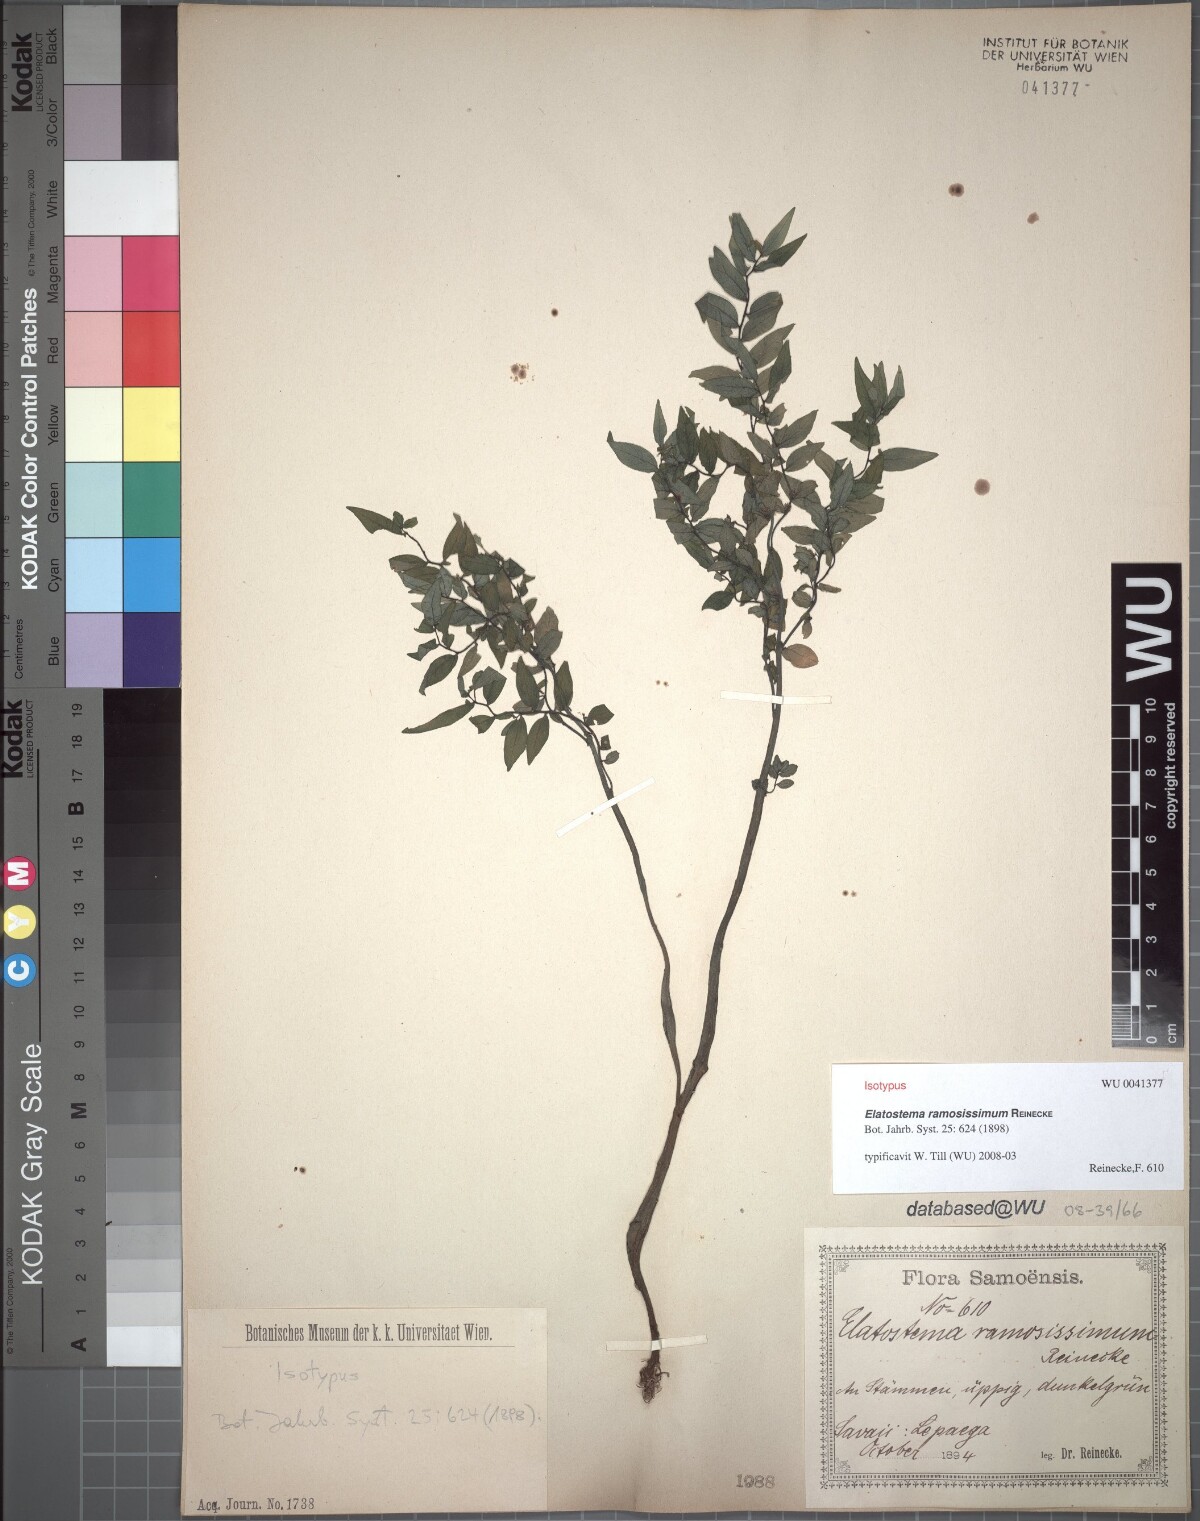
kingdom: Plantae
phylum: Tracheophyta
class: Magnoliopsida
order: Rosales
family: Urticaceae
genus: Elatostema
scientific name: Elatostema ramosissimum
